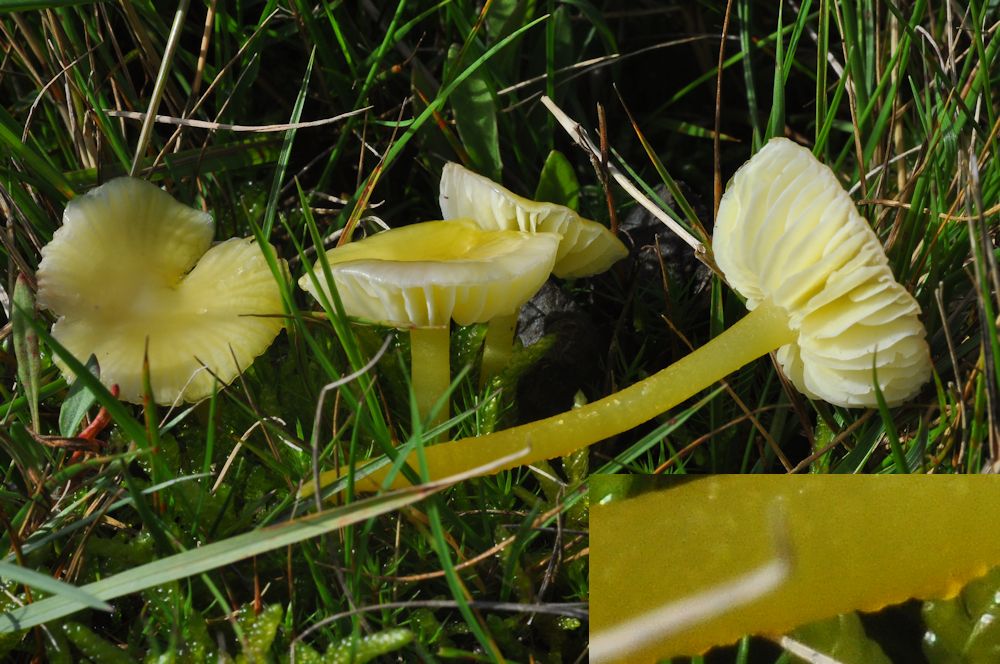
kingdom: Fungi
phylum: Basidiomycota
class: Agaricomycetes
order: Agaricales
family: Hygrophoraceae
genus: Hygrocybe
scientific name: Hygrocybe glutinipes
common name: slimstokket vokshat
